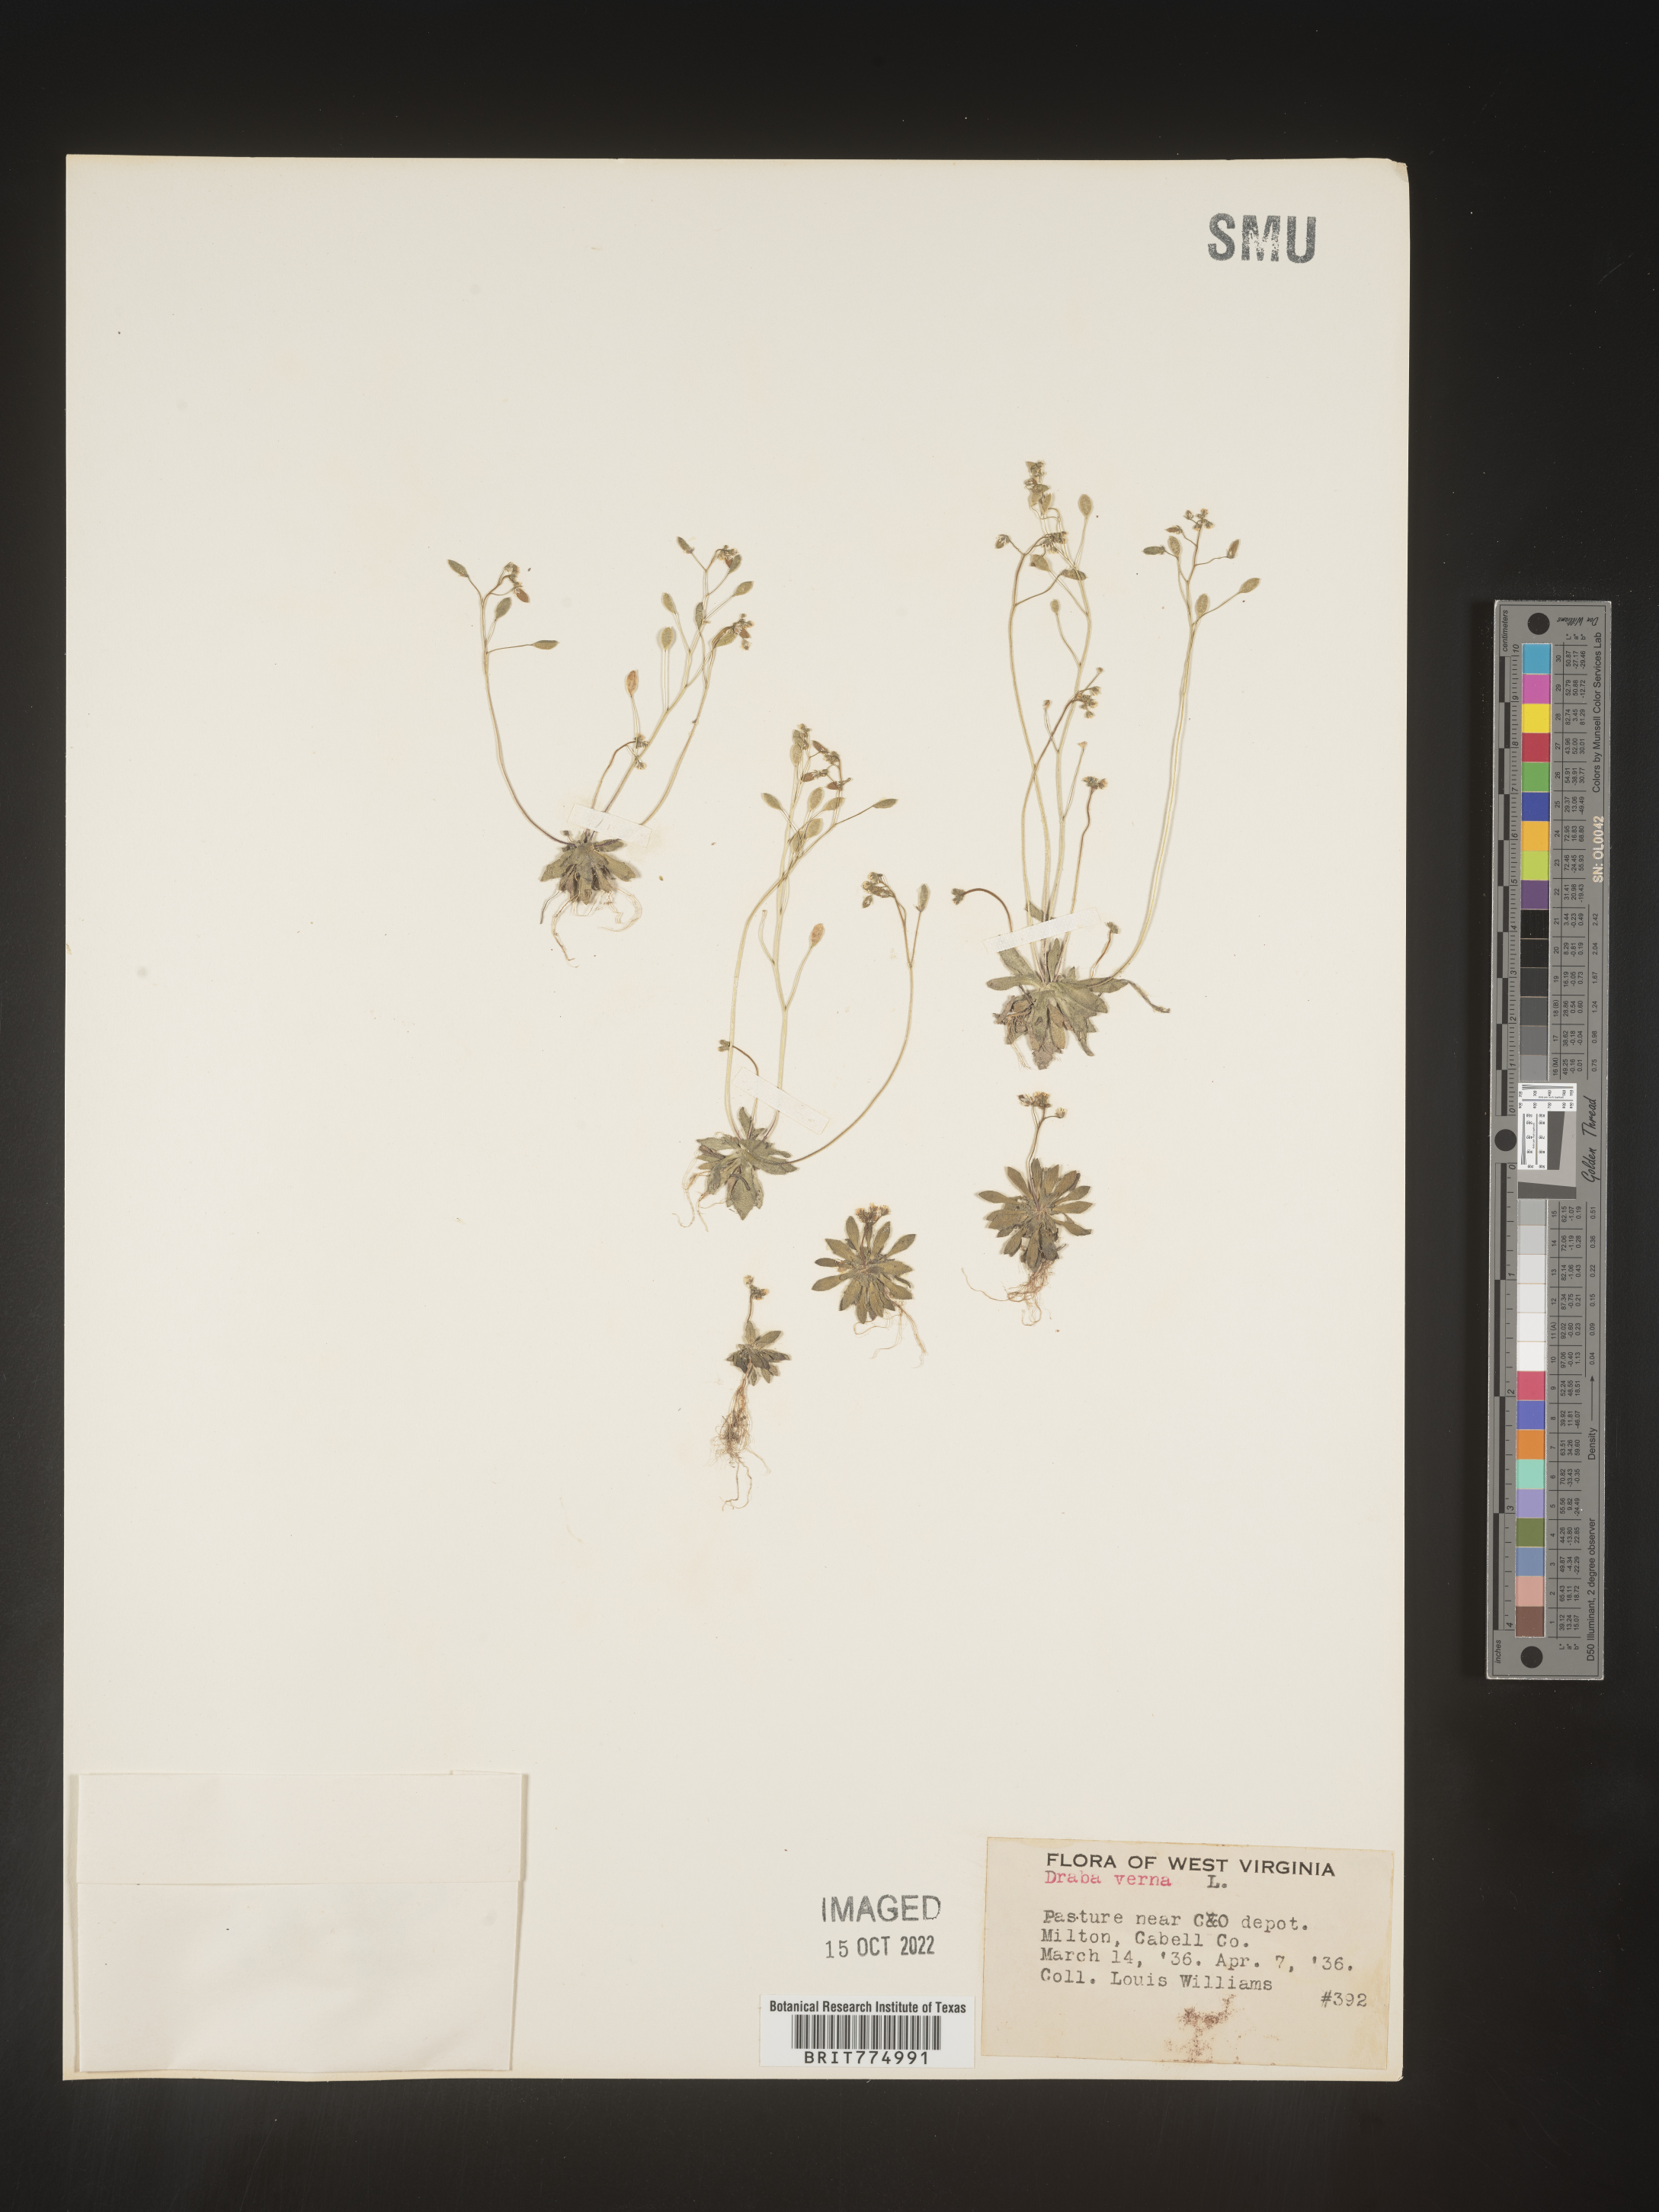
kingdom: Plantae
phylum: Tracheophyta
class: Magnoliopsida
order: Brassicales
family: Brassicaceae
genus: Draba
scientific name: Draba verna
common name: Spring draba
